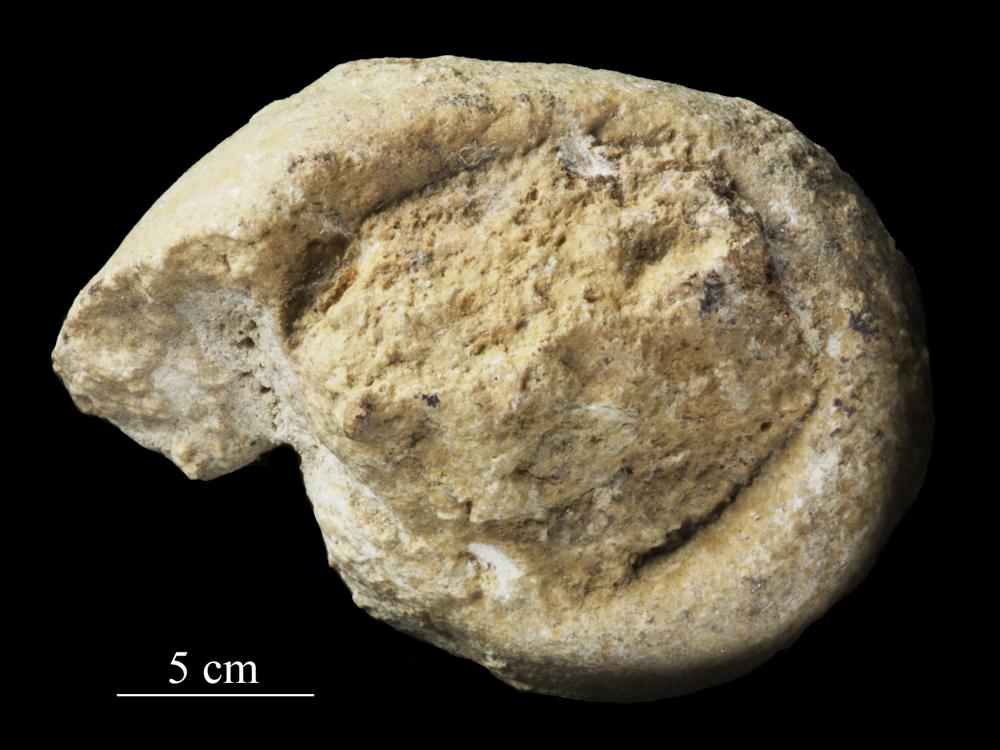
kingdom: Animalia
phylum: Mollusca
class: Gastropoda
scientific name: Gastropoda
